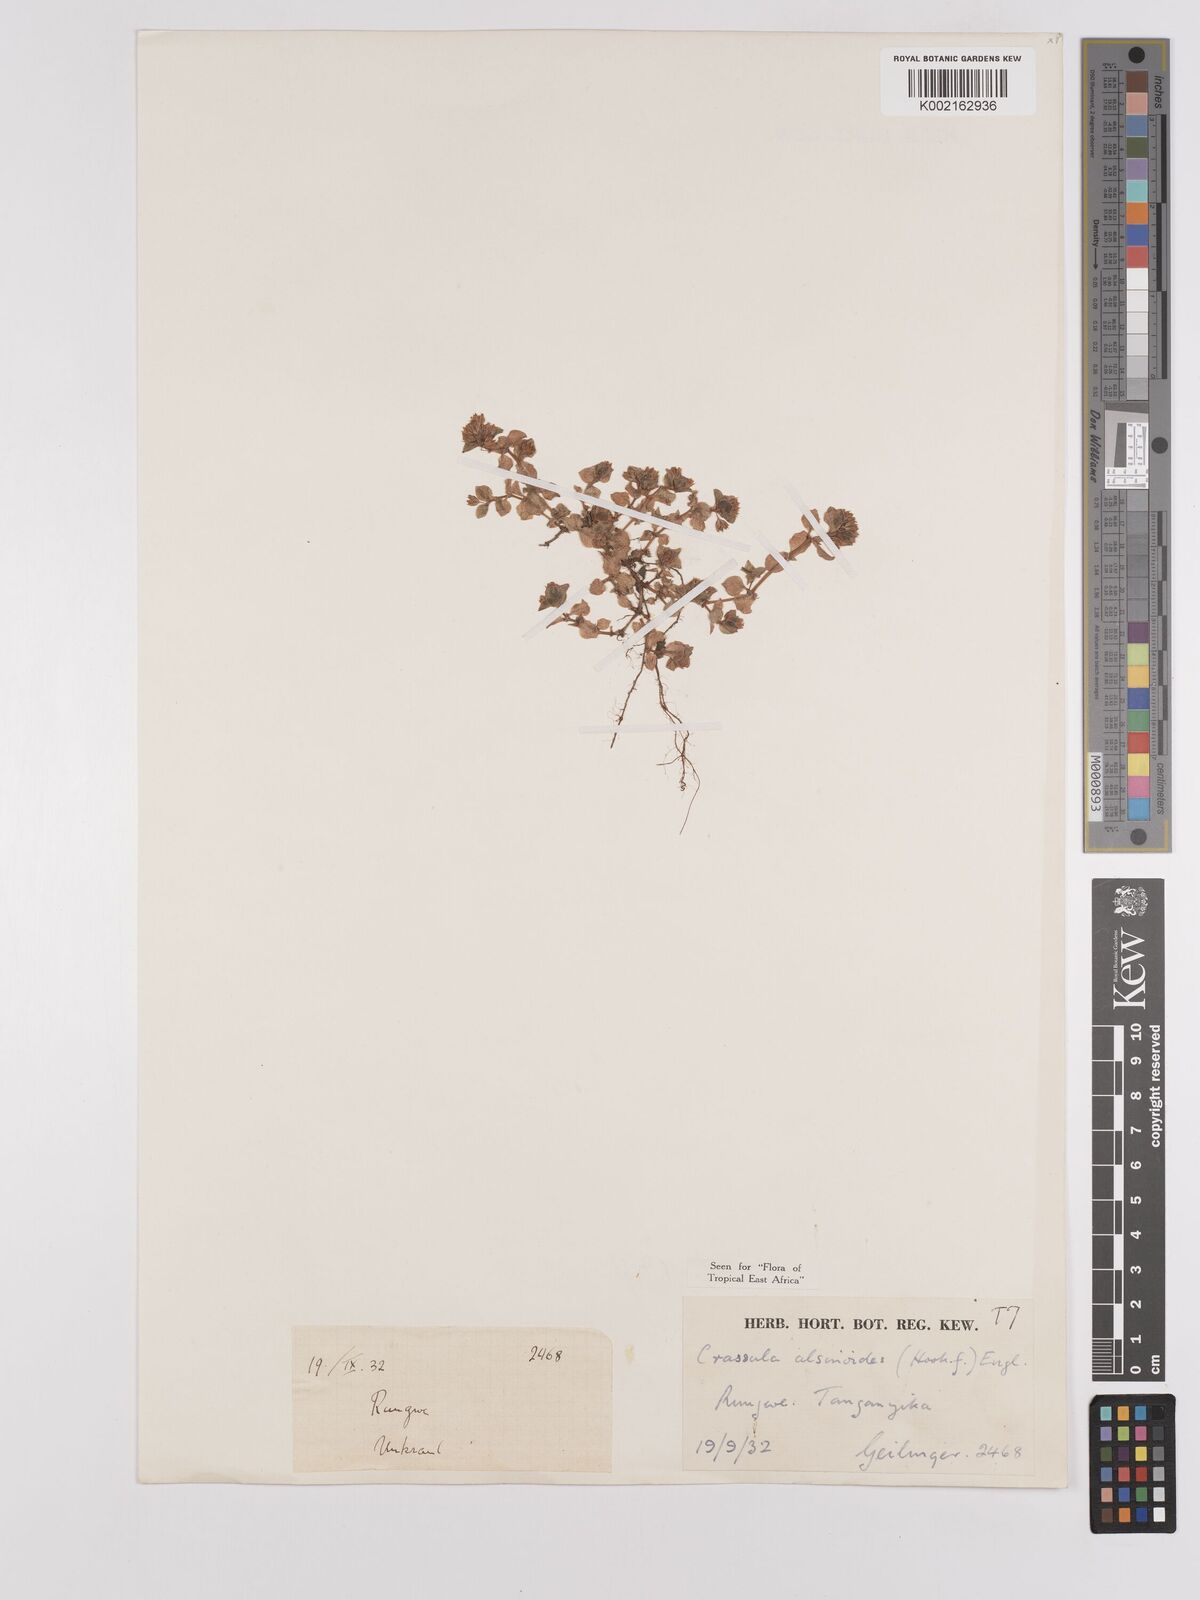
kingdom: Plantae
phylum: Tracheophyta
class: Magnoliopsida
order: Saxifragales
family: Crassulaceae
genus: Crassula
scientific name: Crassula alsinoides
